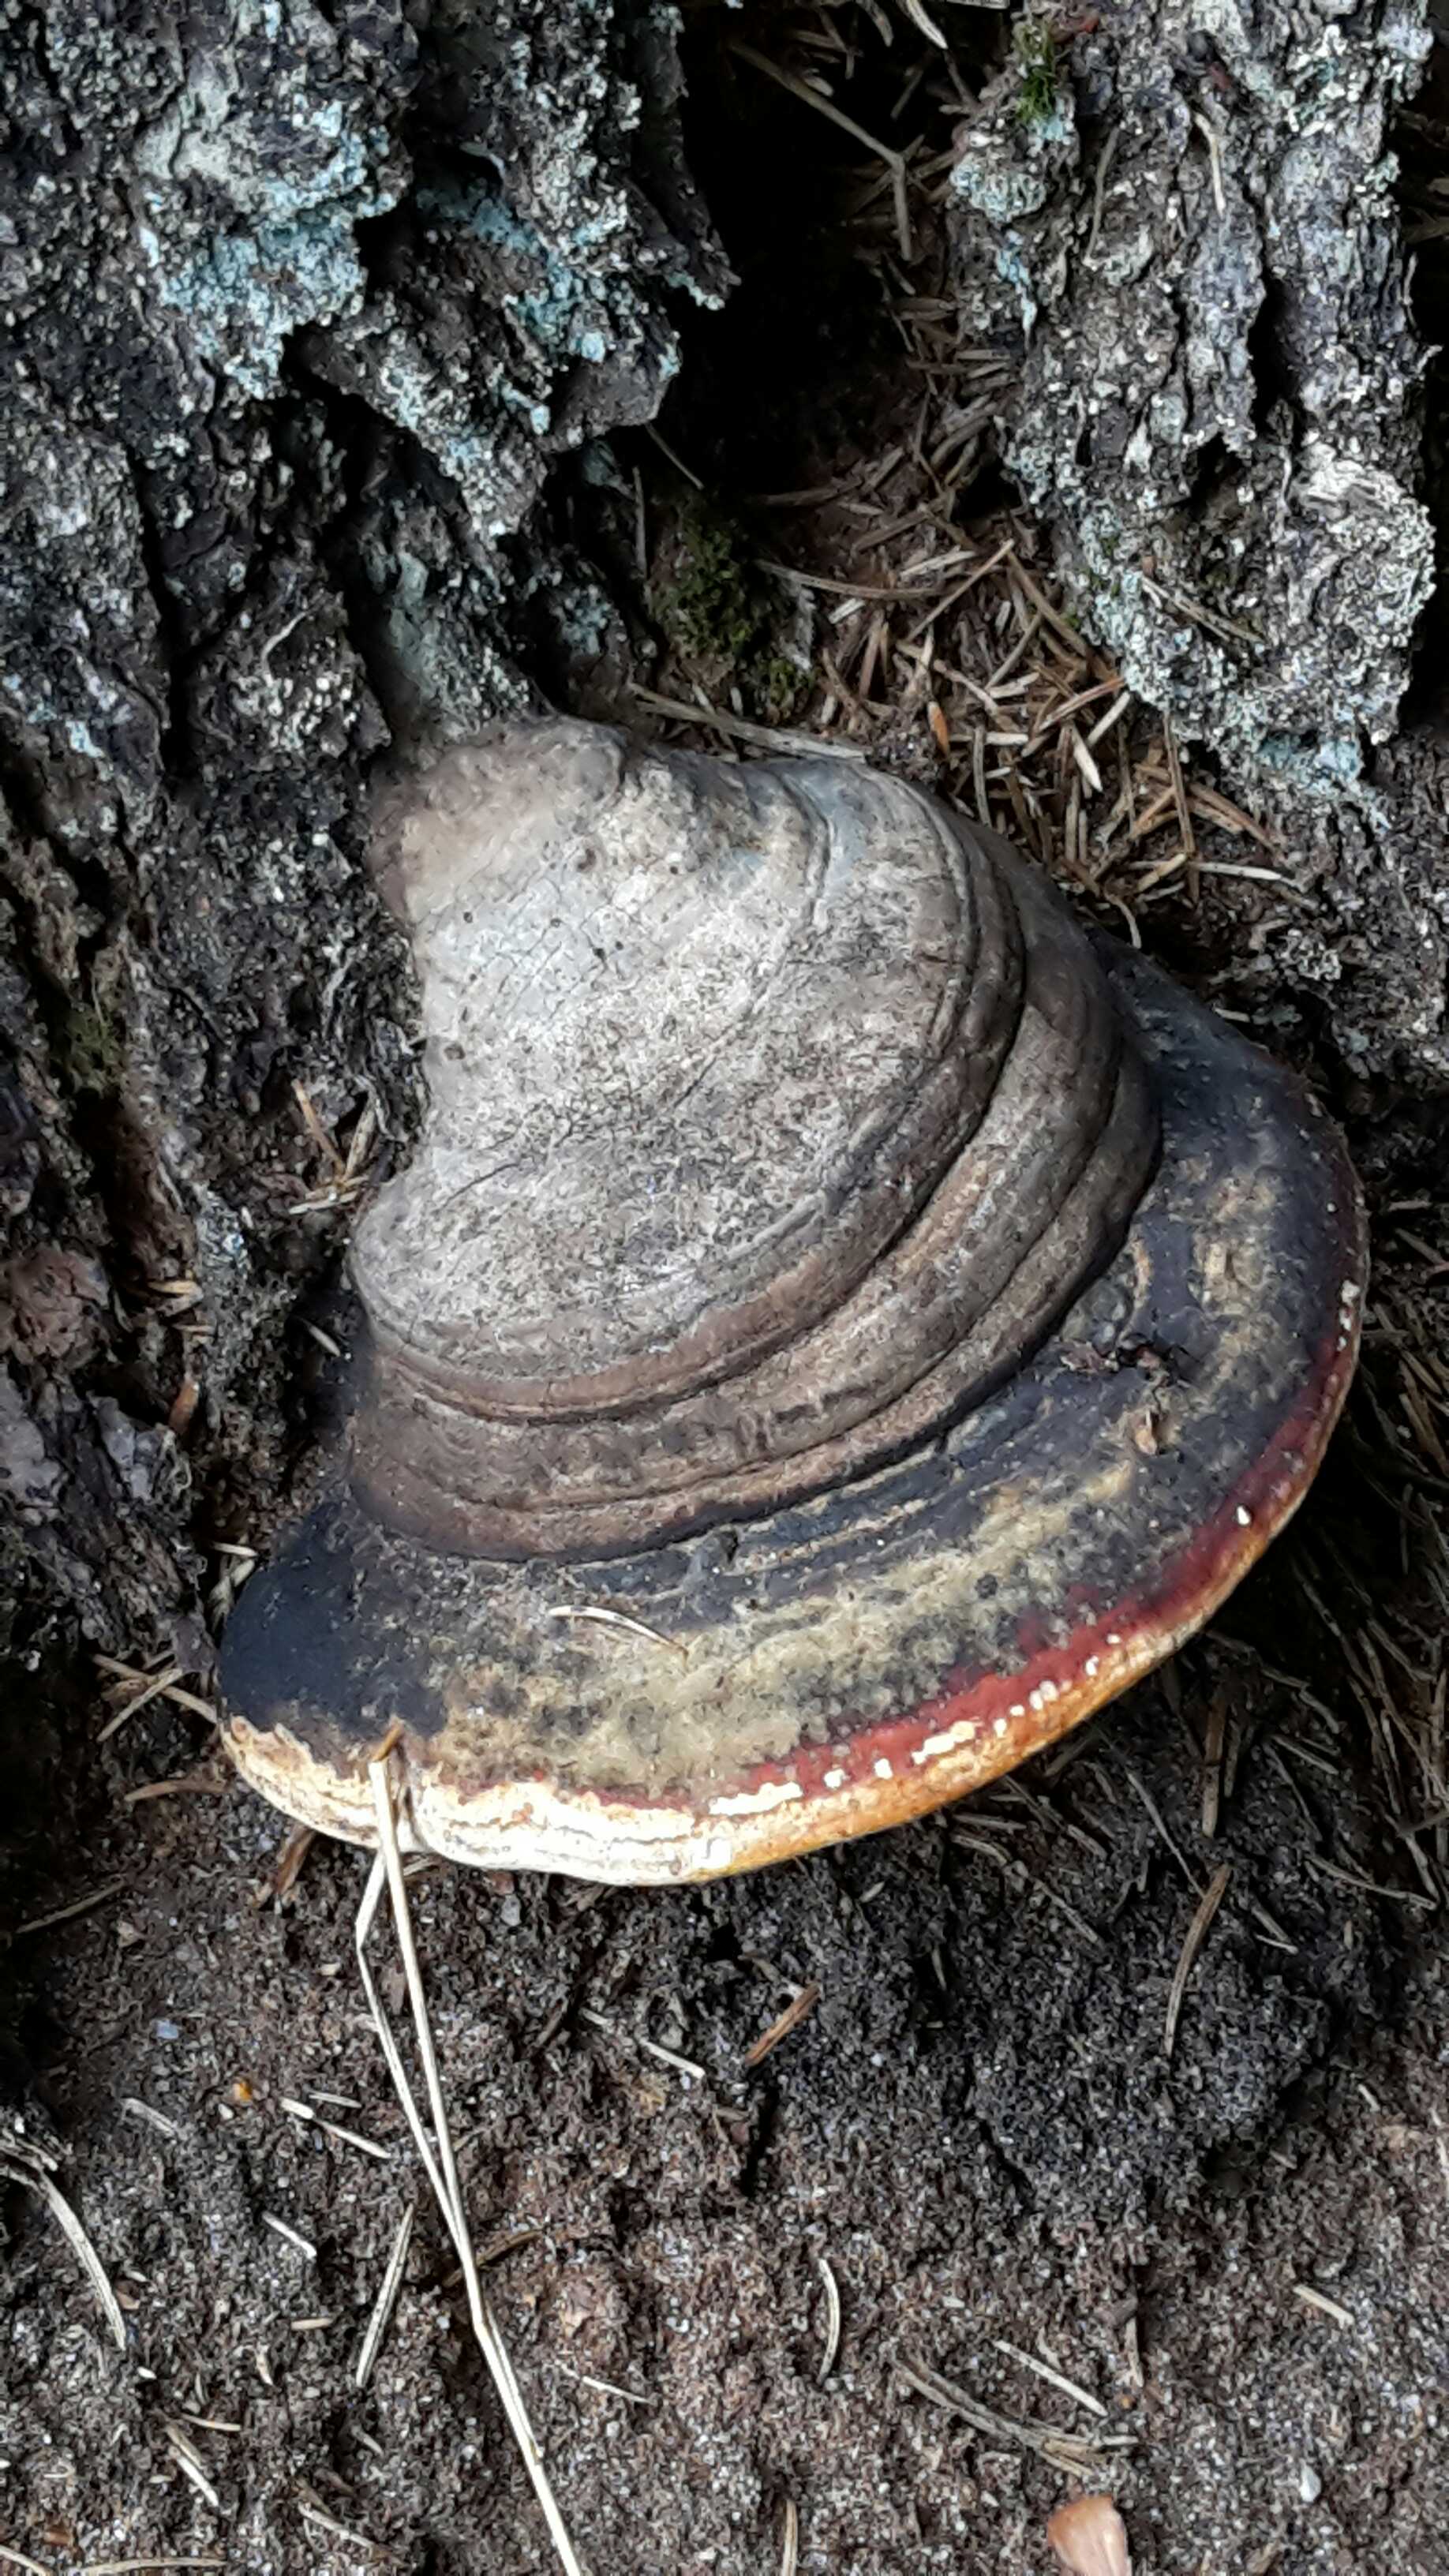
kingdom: Fungi
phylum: Basidiomycota
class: Agaricomycetes
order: Polyporales
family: Fomitopsidaceae
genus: Fomitopsis
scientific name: Fomitopsis pinicola
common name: randbæltet hovporesvamp
